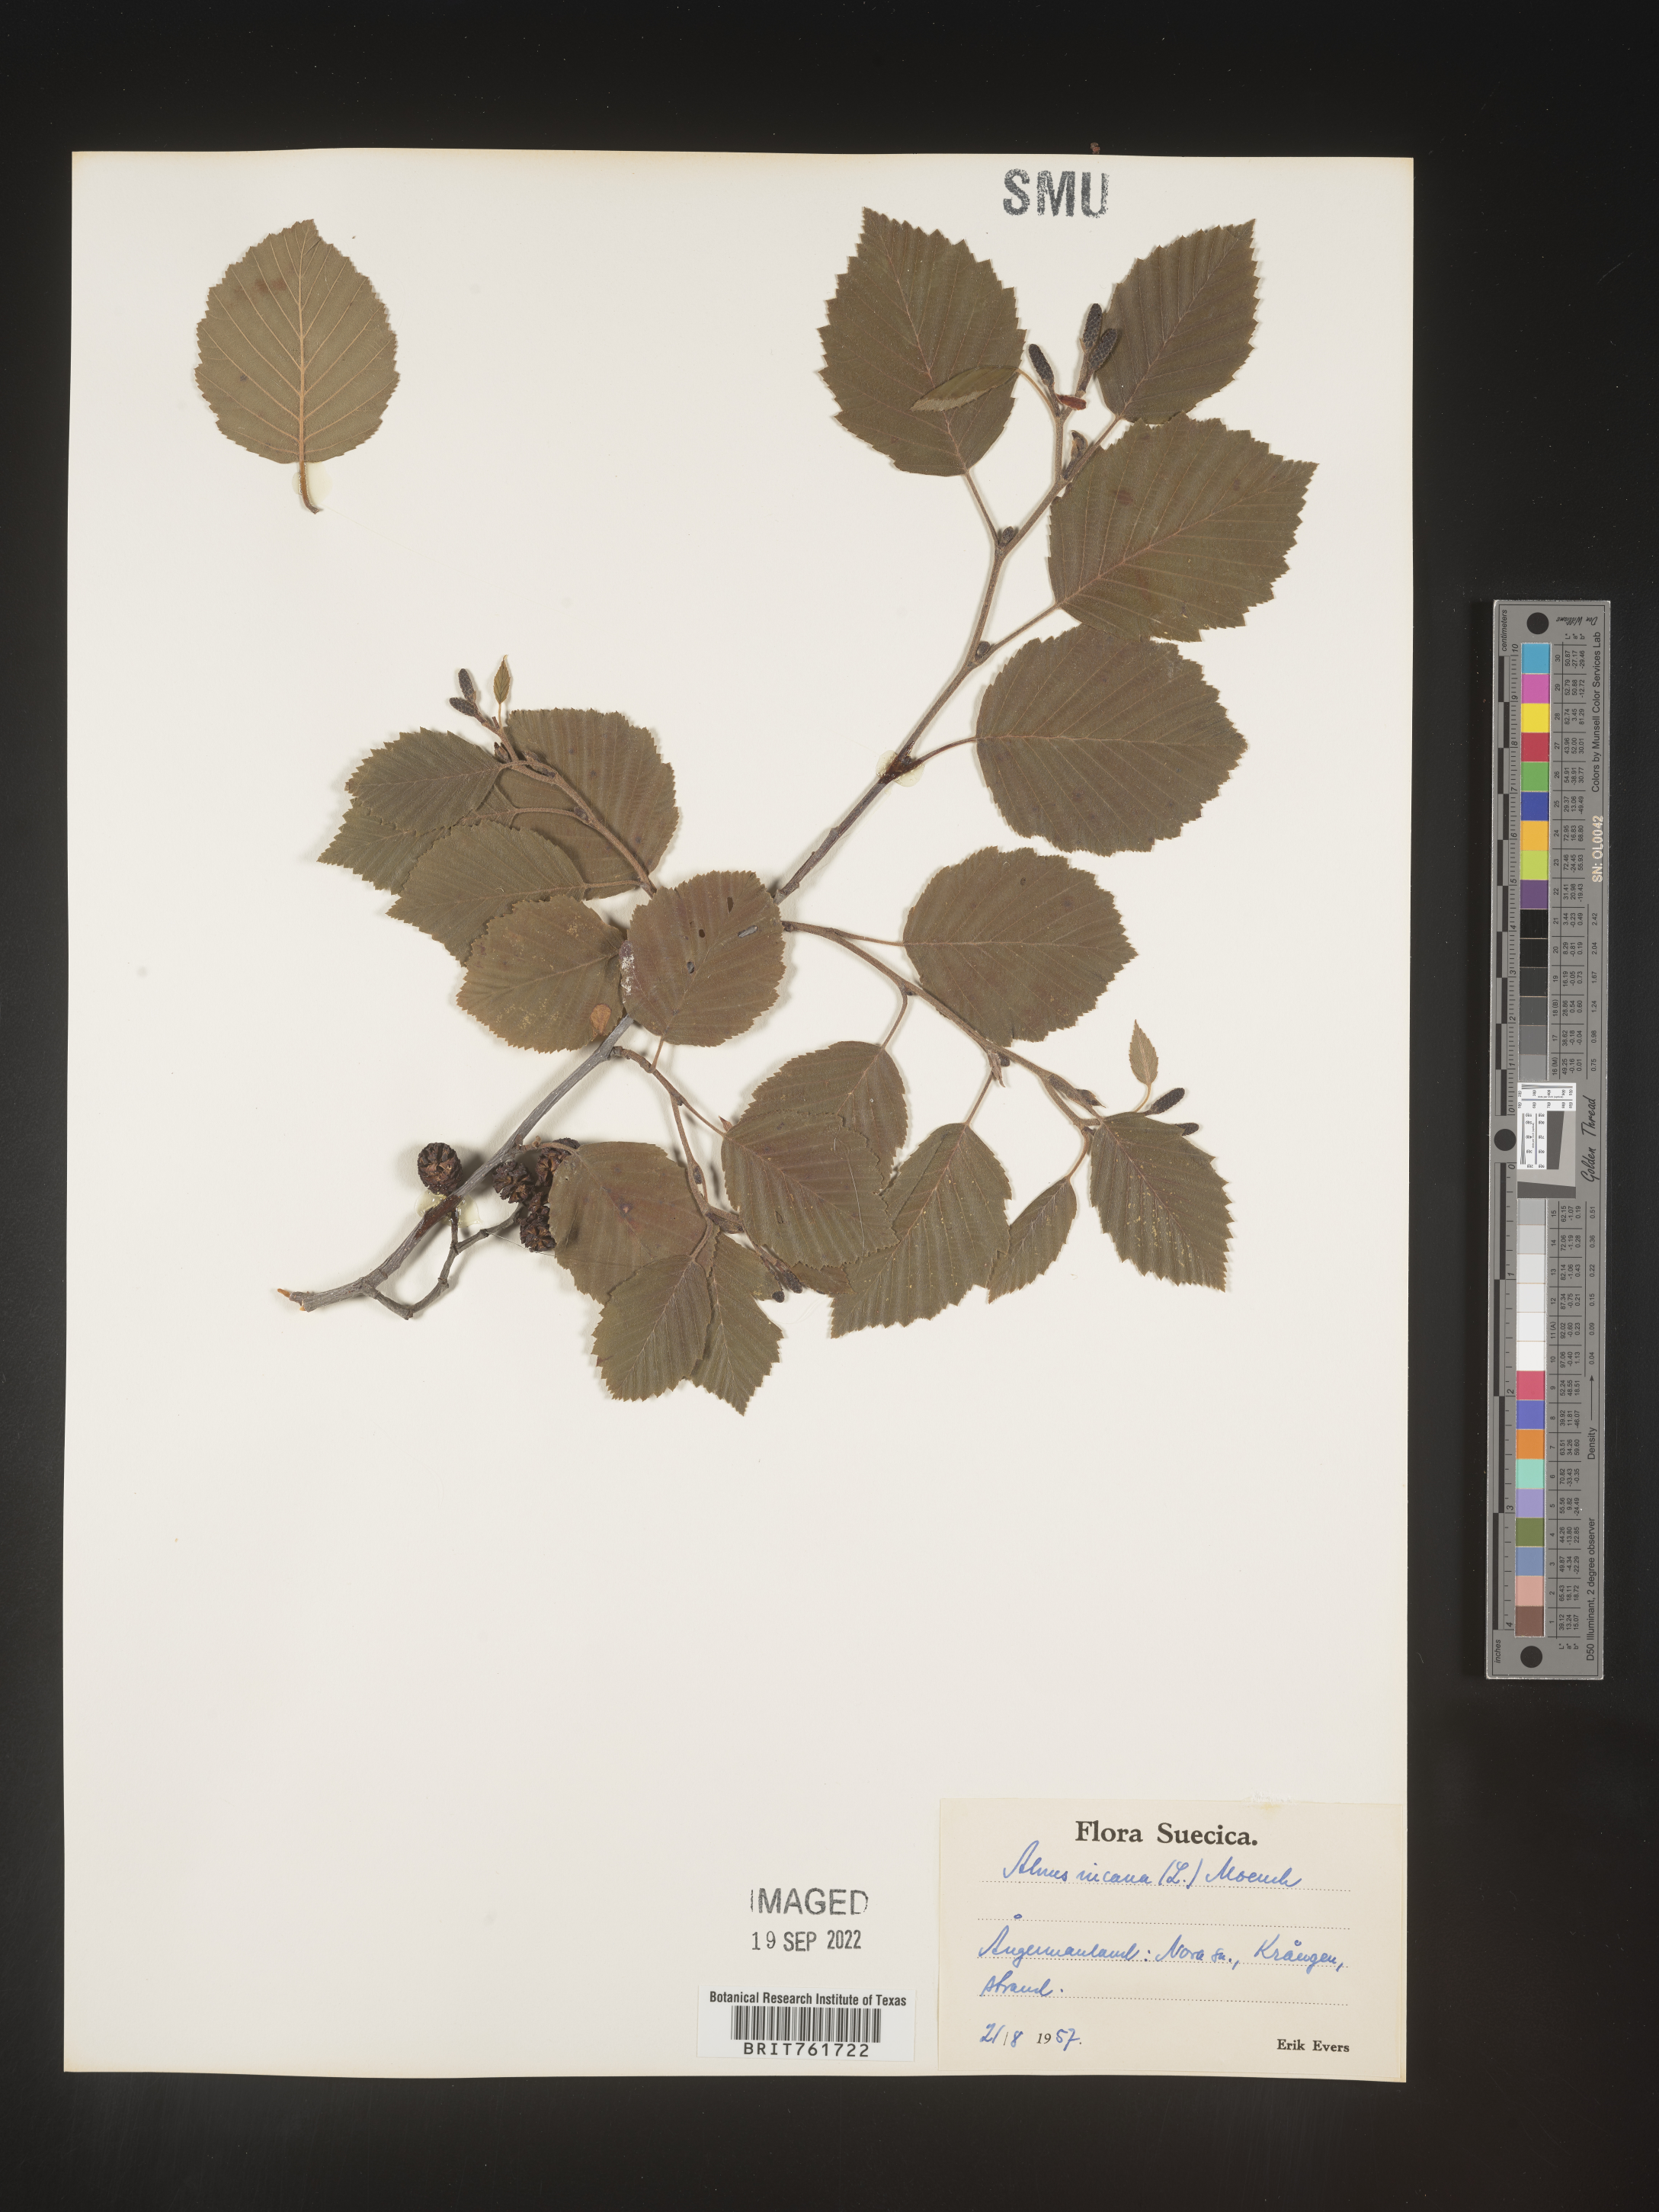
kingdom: Plantae
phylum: Tracheophyta
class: Magnoliopsida
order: Fagales
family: Betulaceae
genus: Alnus
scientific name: Alnus
